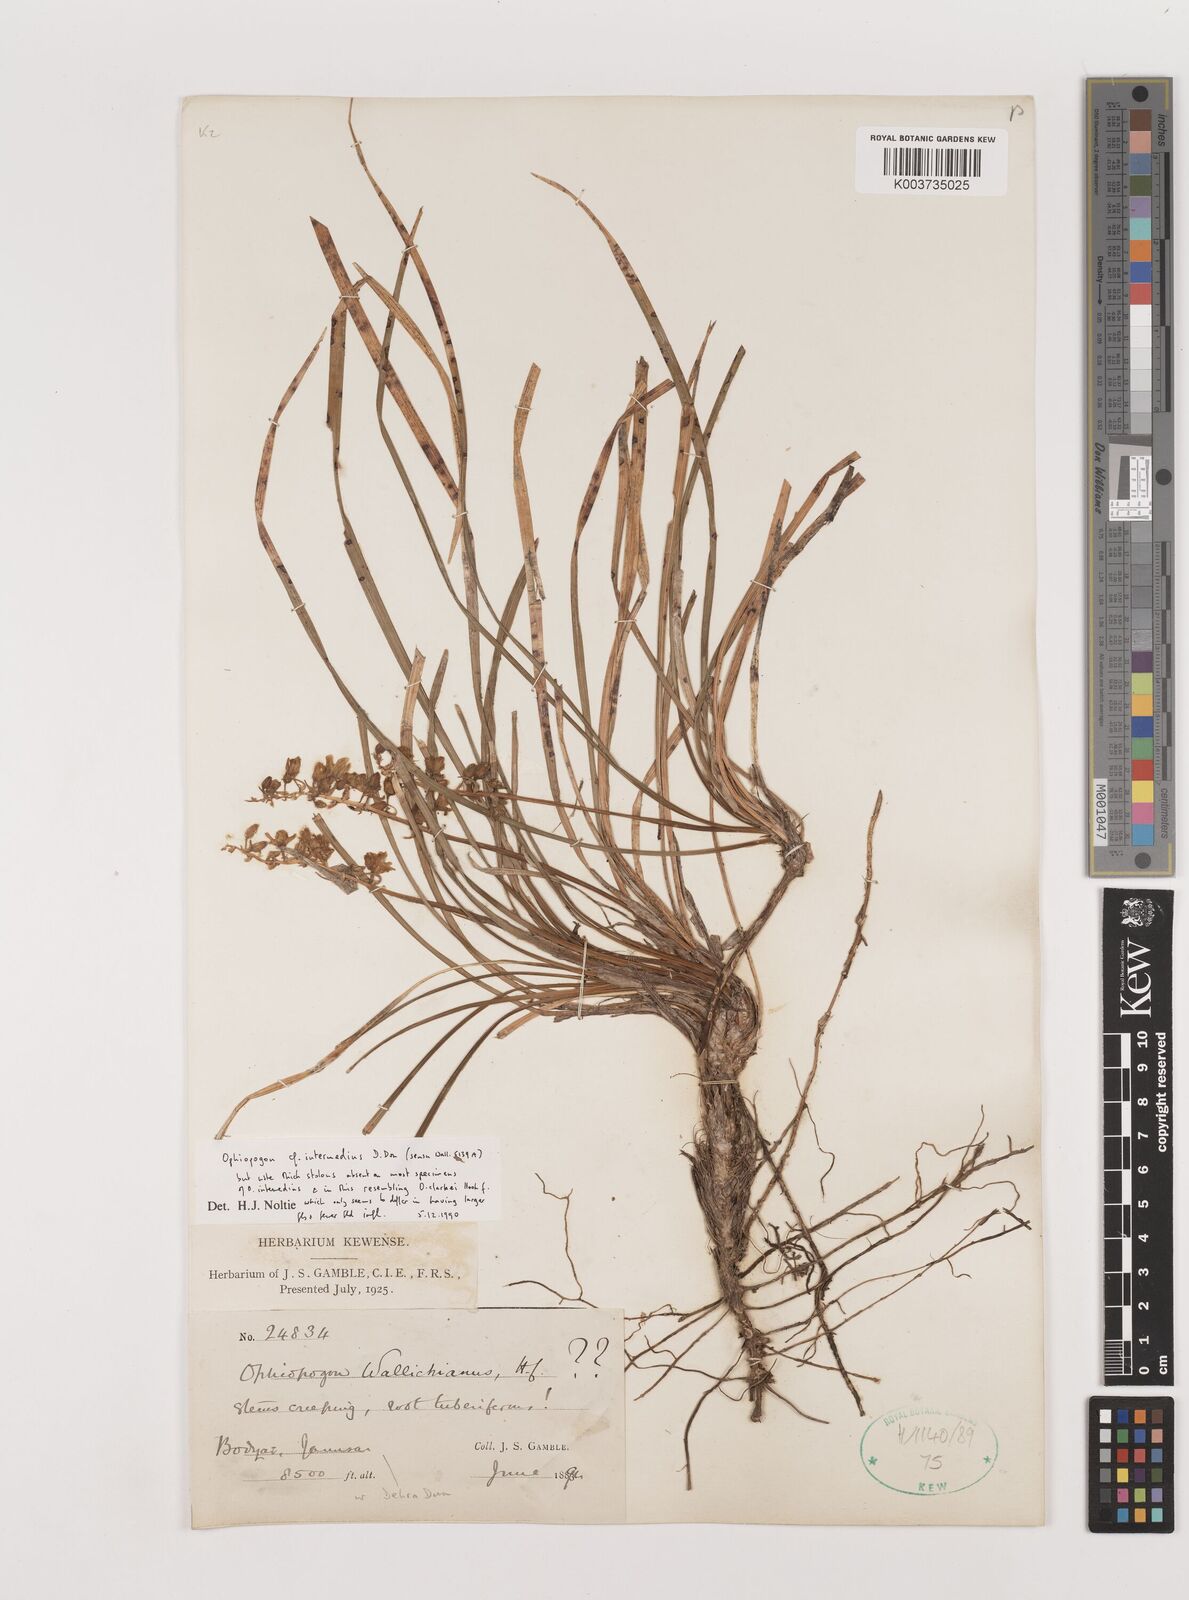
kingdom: Plantae
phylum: Tracheophyta
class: Liliopsida
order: Asparagales
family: Asparagaceae
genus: Ophiopogon
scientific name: Ophiopogon intermedius
